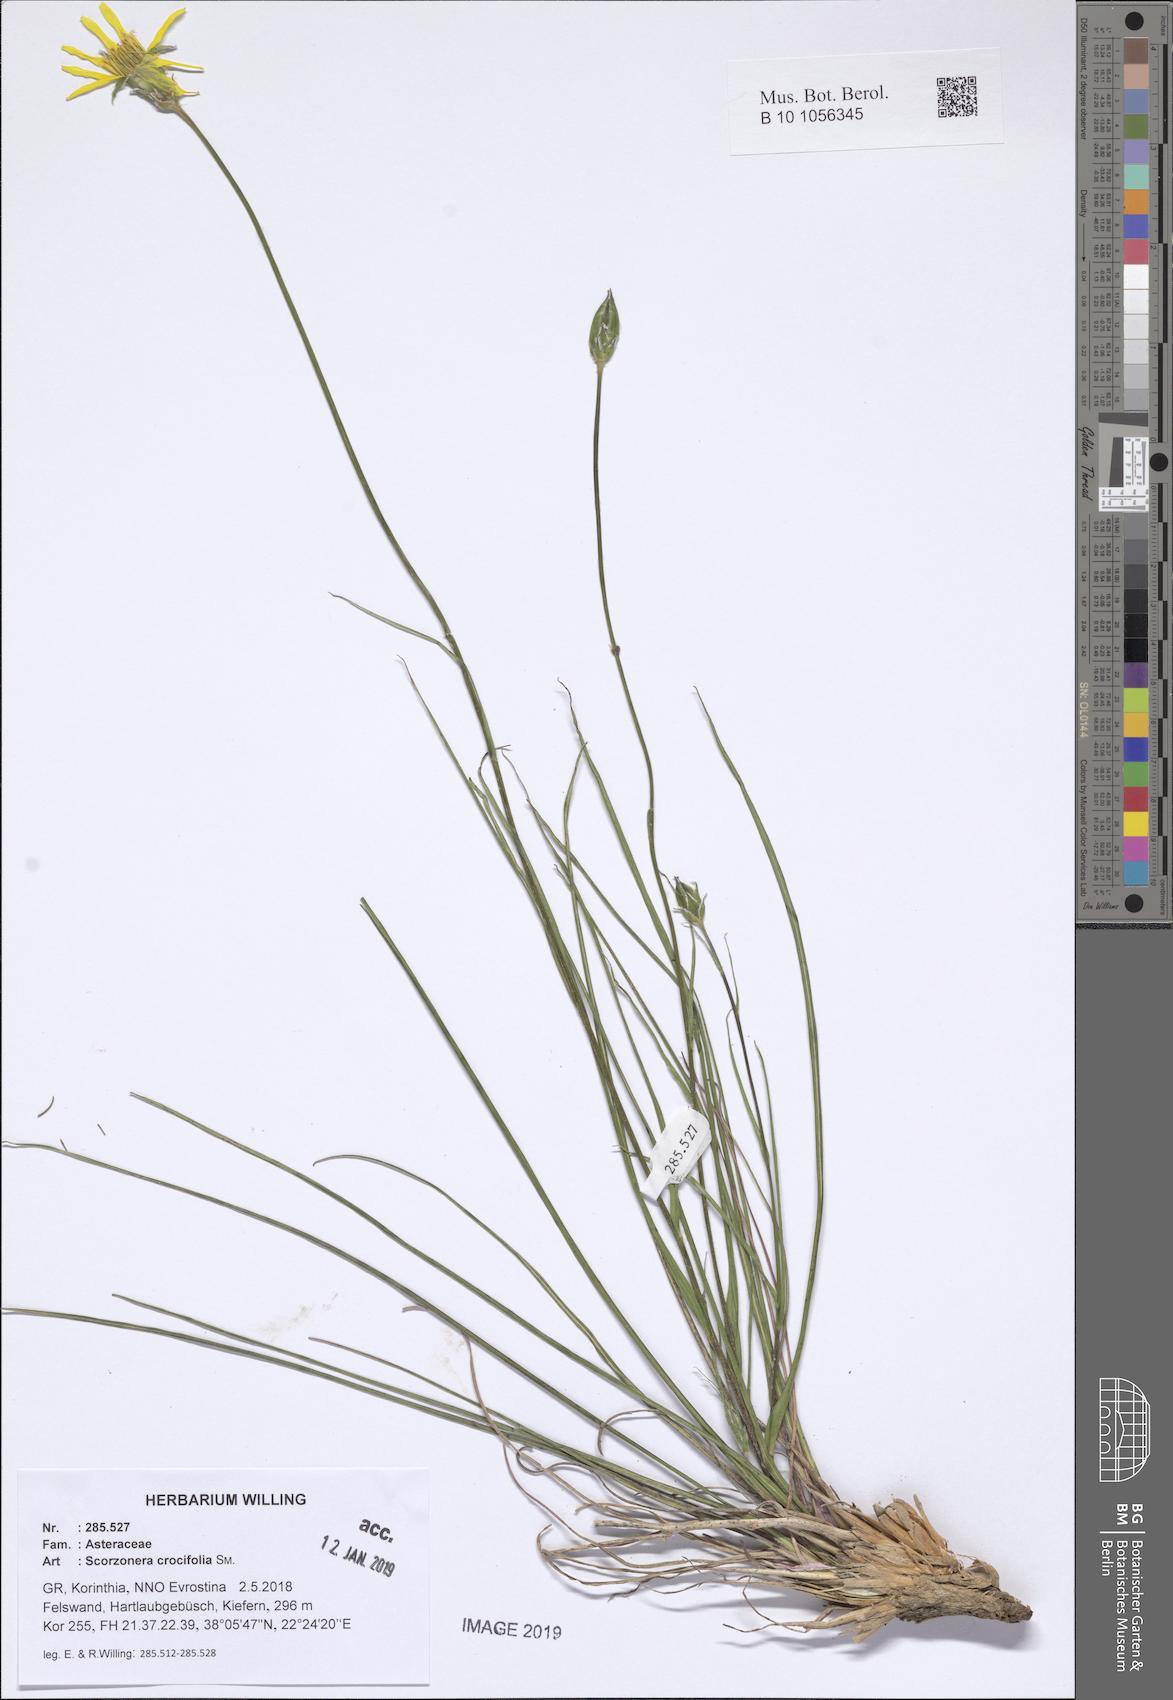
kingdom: Plantae
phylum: Tracheophyta
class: Magnoliopsida
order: Asterales
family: Asteraceae
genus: Pseudopodospermum
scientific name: Pseudopodospermum crocifolium
